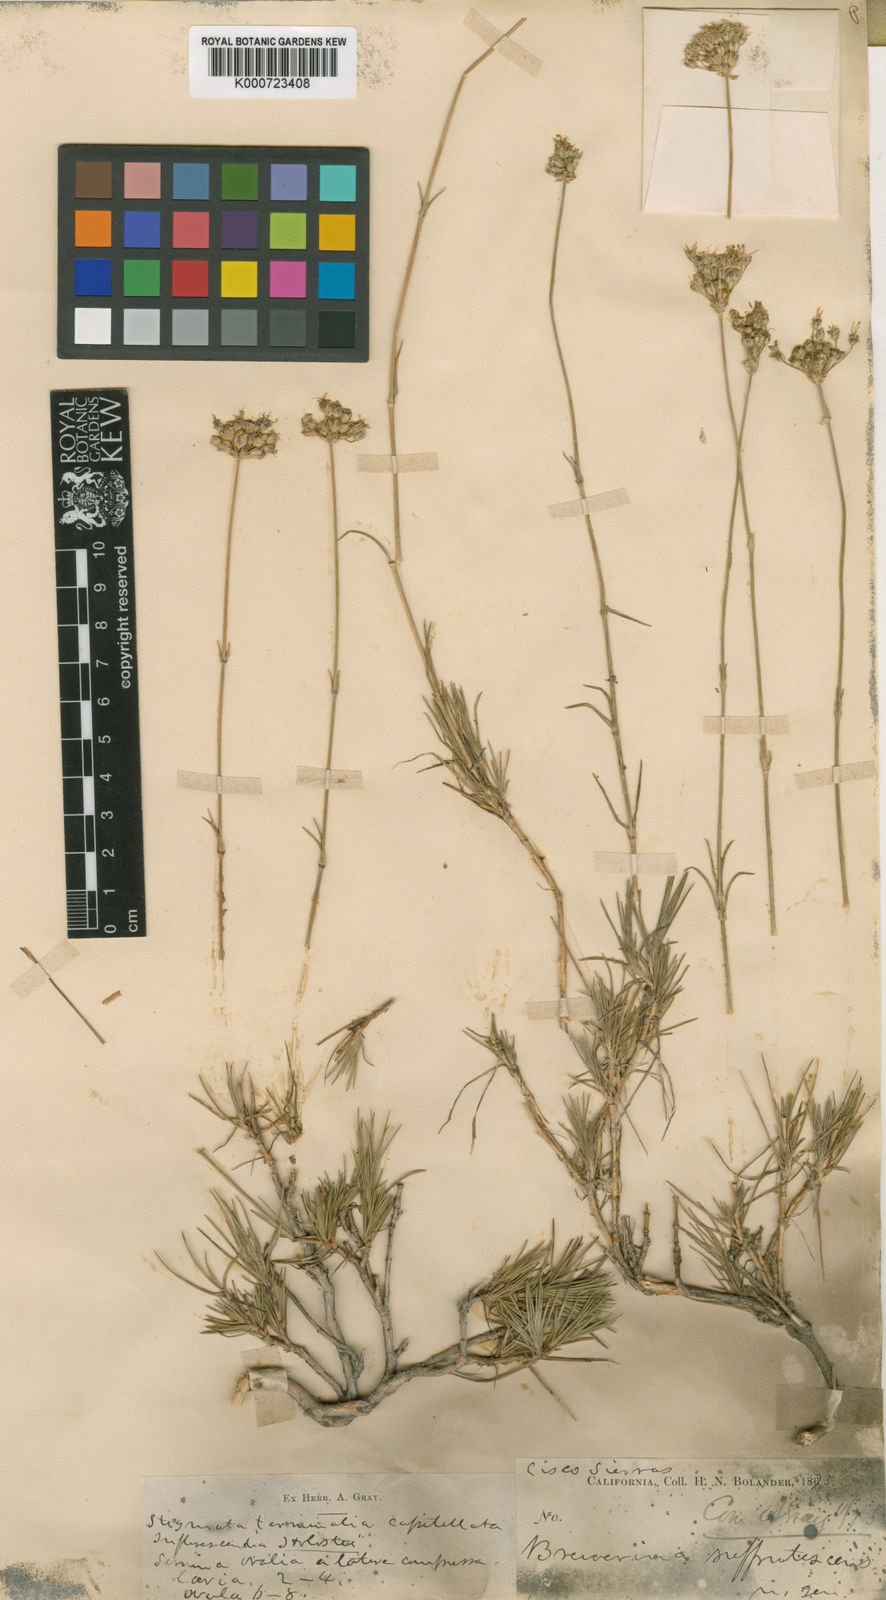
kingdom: Plantae
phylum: Tracheophyta
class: Magnoliopsida
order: Caryophyllales
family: Caryophyllaceae
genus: Eremogone
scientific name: Eremogone congesta
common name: Ballhead sandwort
